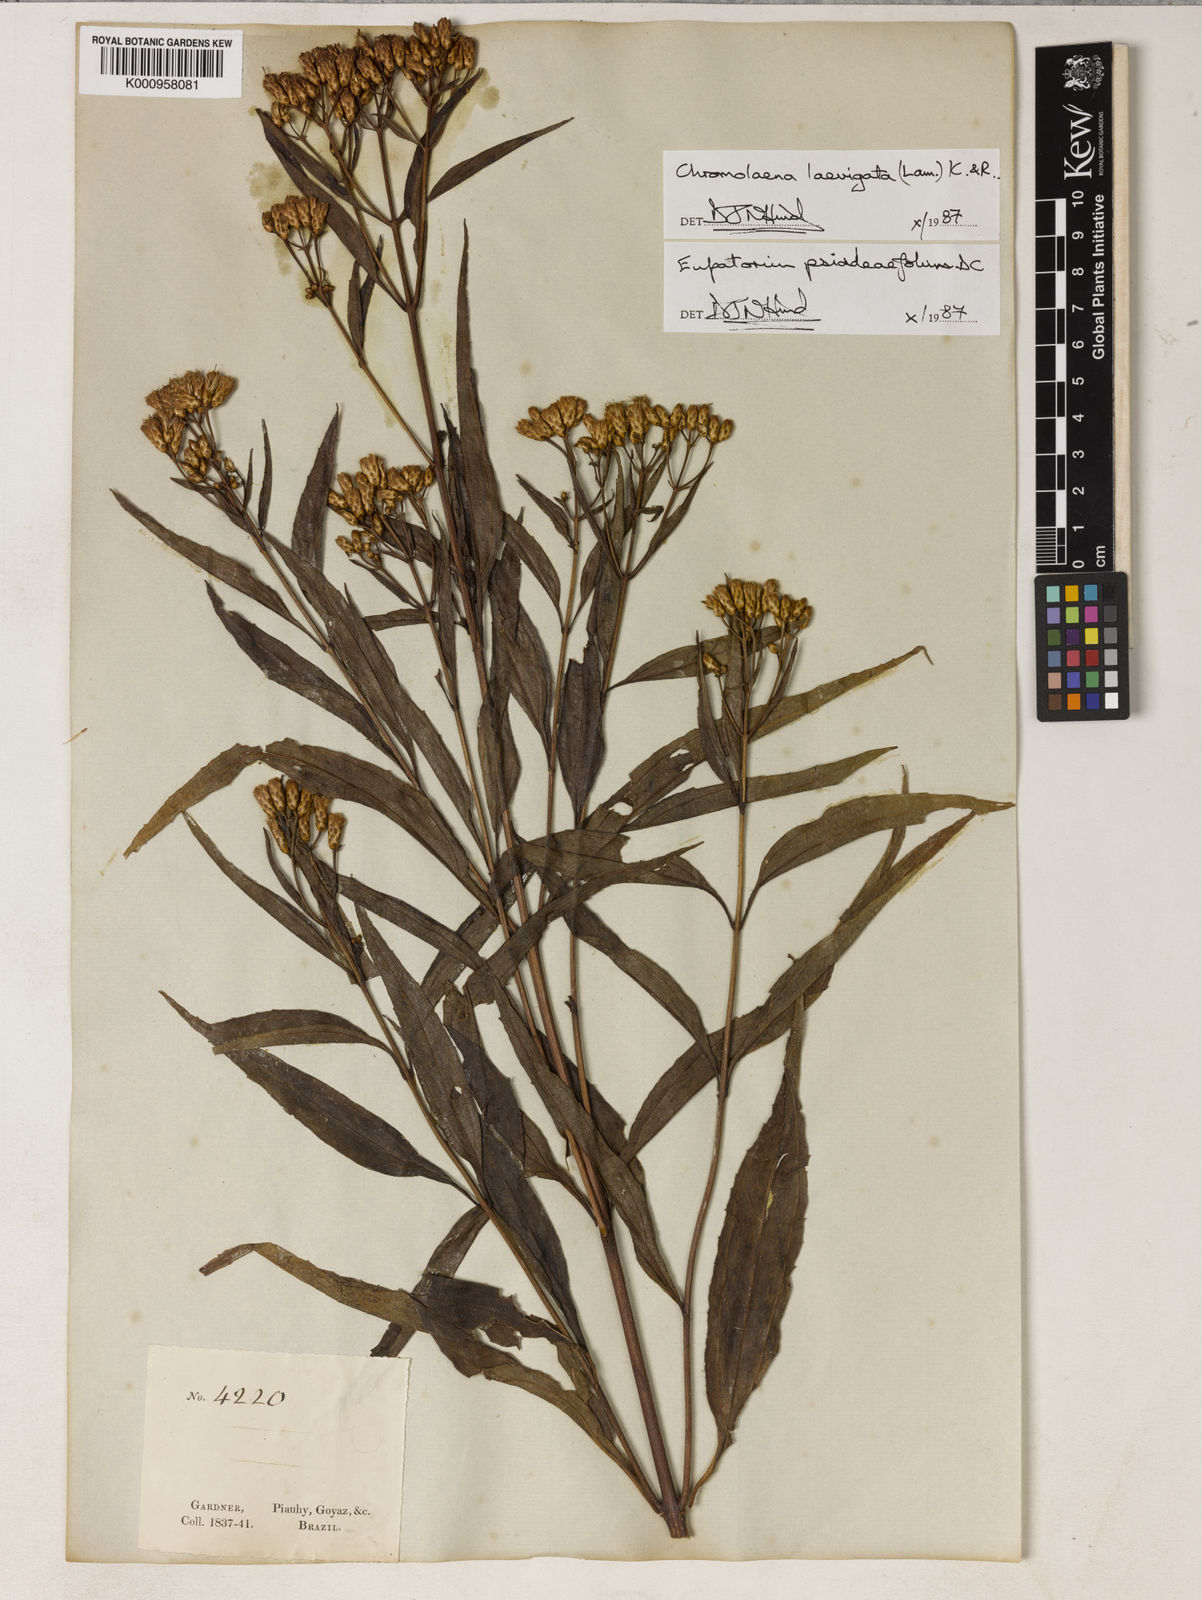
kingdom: Plantae
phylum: Tracheophyta
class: Magnoliopsida
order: Asterales
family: Asteraceae
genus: Chromolaena
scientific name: Chromolaena laevigata
